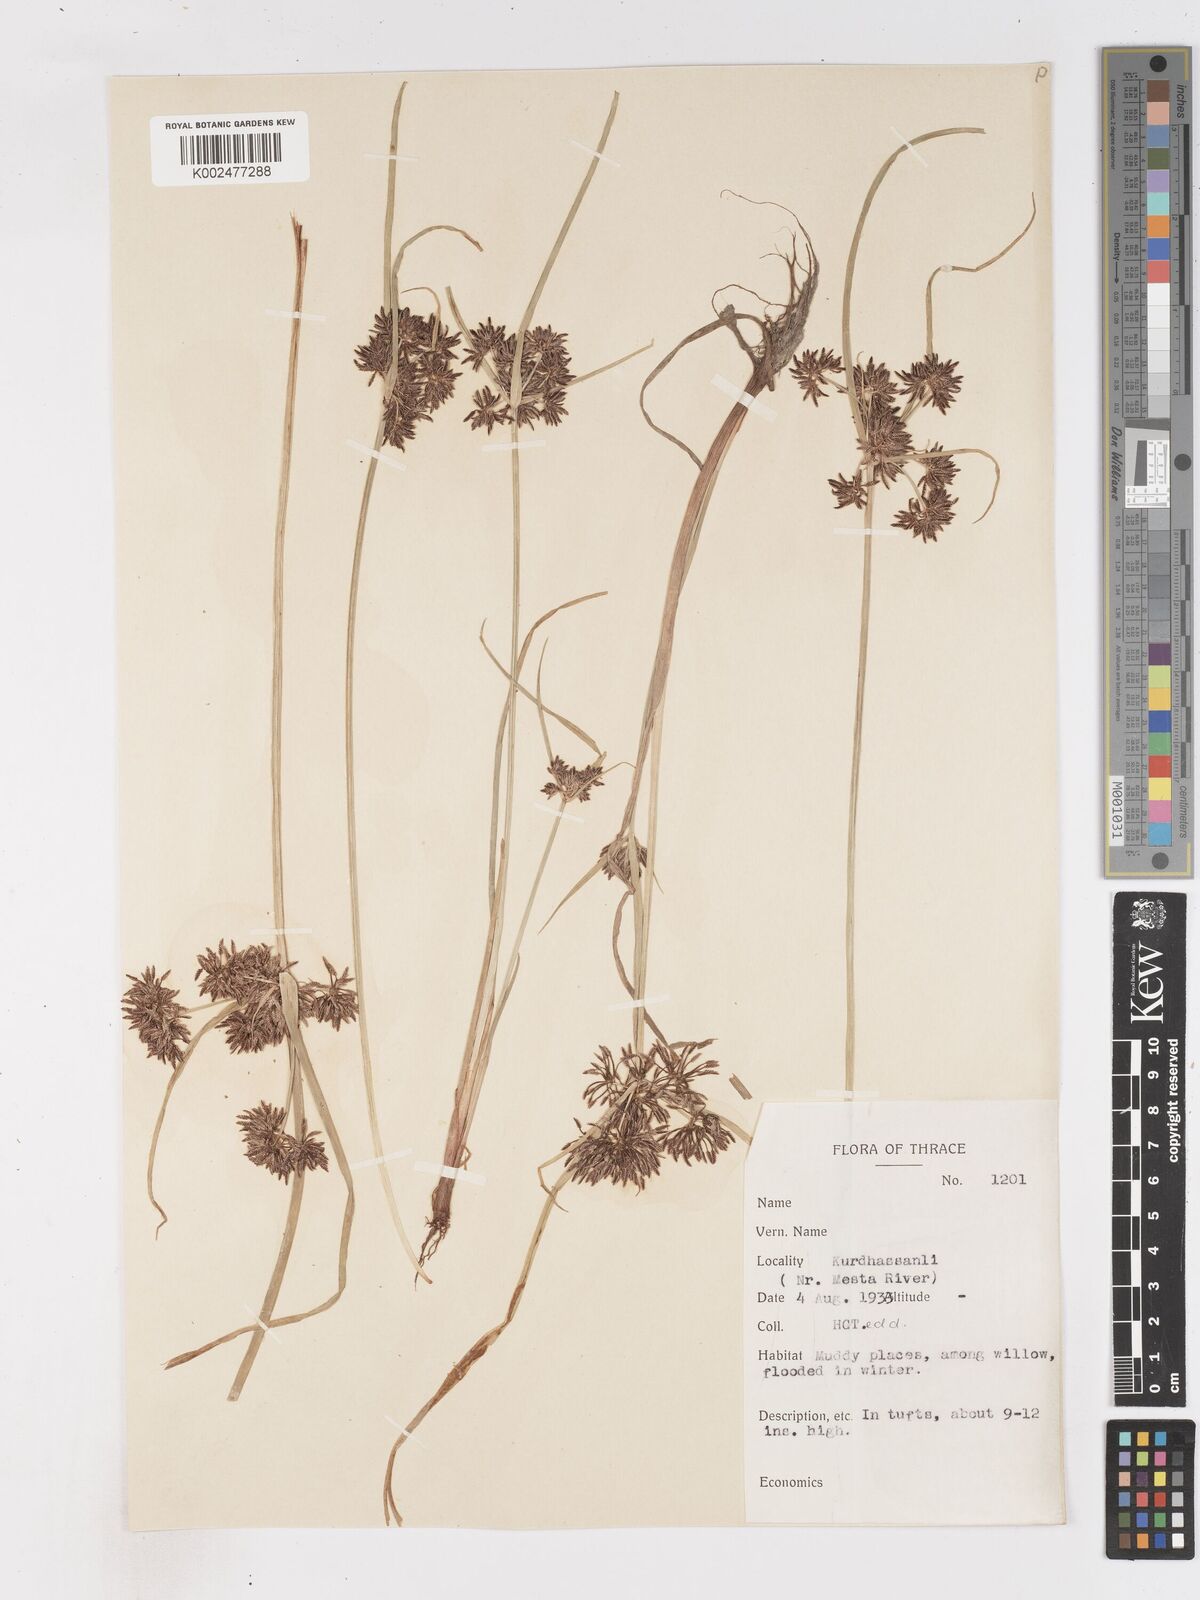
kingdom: Plantae
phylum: Tracheophyta
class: Liliopsida
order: Poales
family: Cyperaceae
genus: Cyperus
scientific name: Cyperus fuscus
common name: Brown galingale
